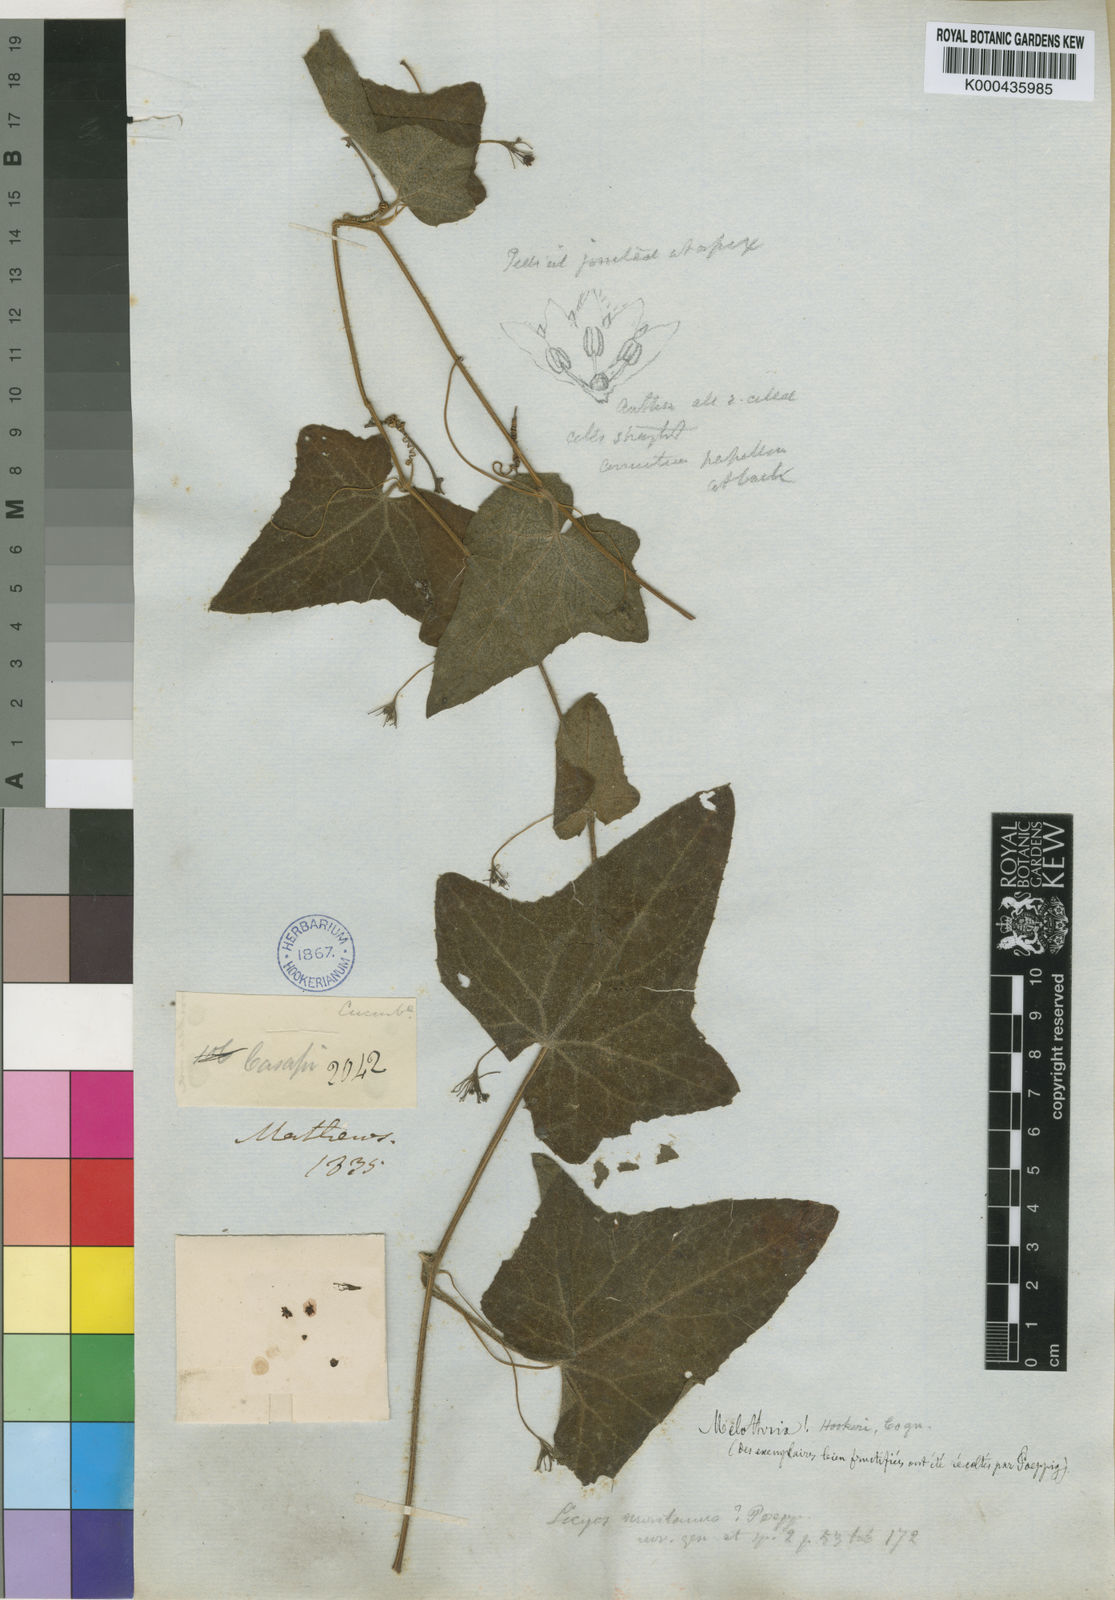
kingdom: Plantae
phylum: Tracheophyta
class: Magnoliopsida
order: Cucurbitales
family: Cucurbitaceae
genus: Melothria
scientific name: Melothria warmingii
